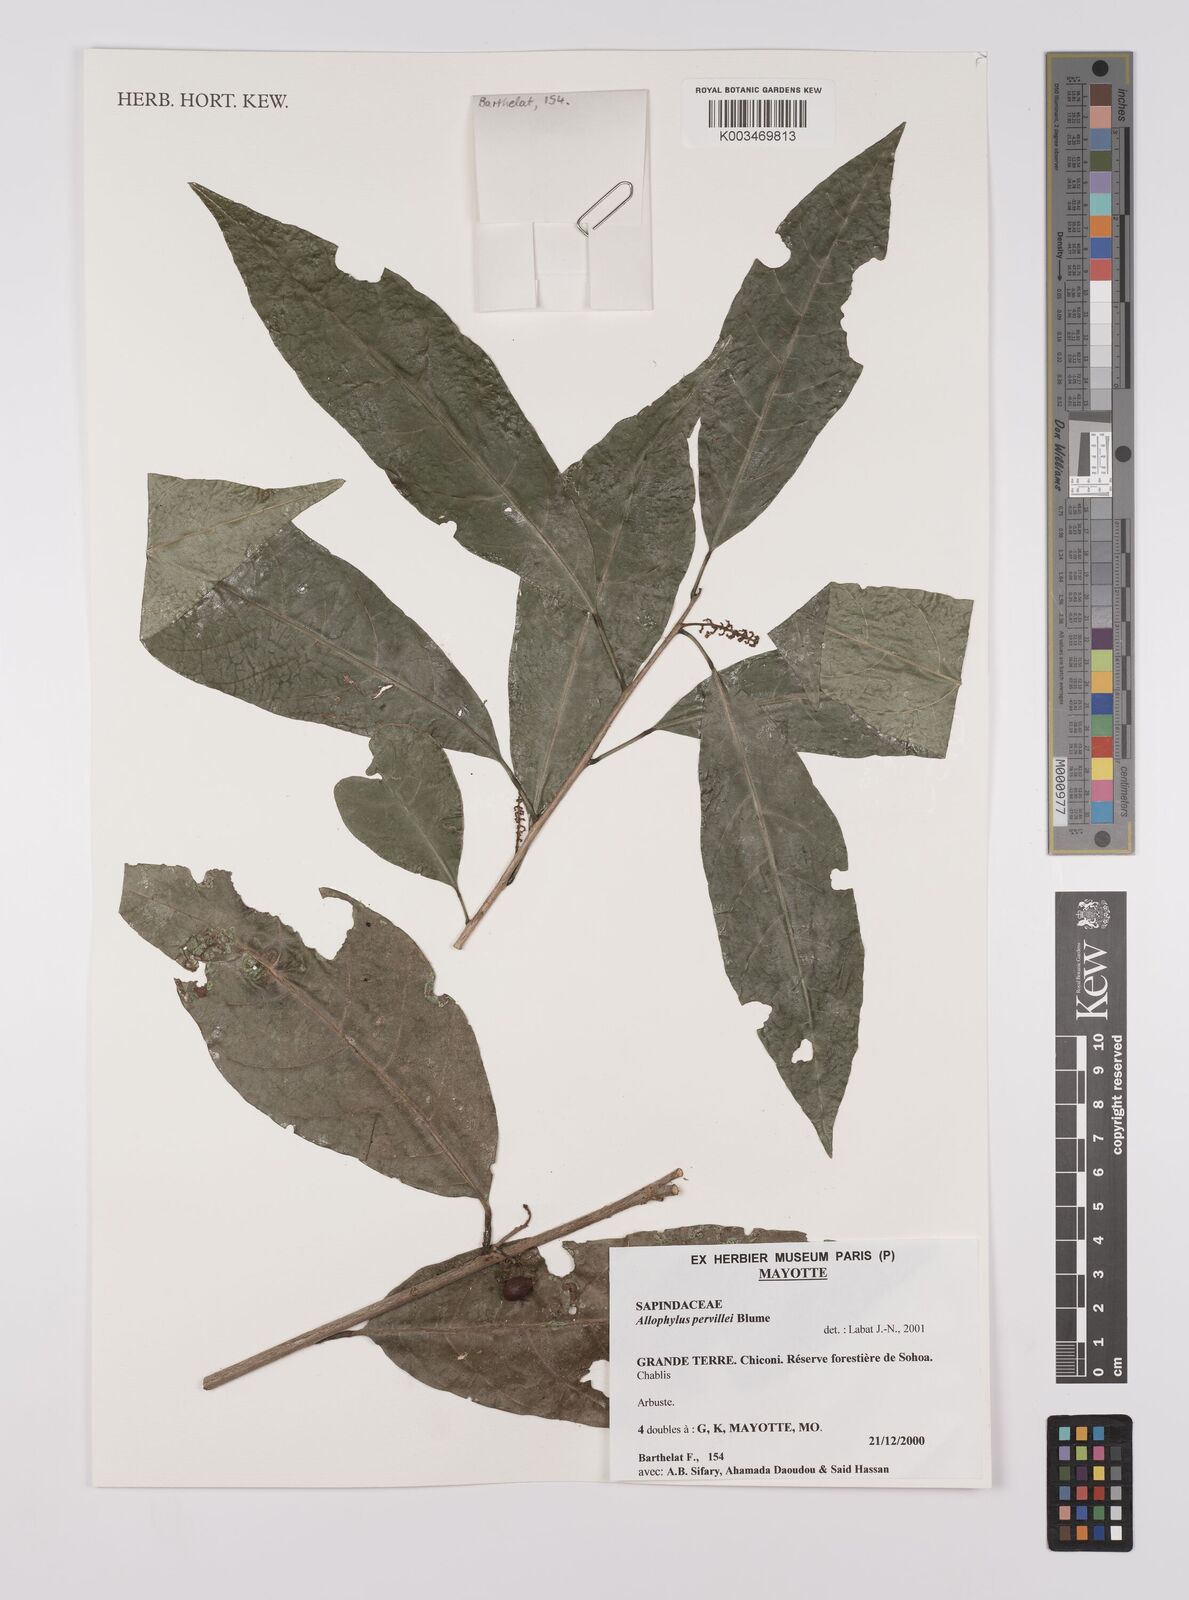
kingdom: Plantae
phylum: Tracheophyta
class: Magnoliopsida
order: Sapindales
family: Sapindaceae
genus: Allophylus
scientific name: Allophylus pervillei
